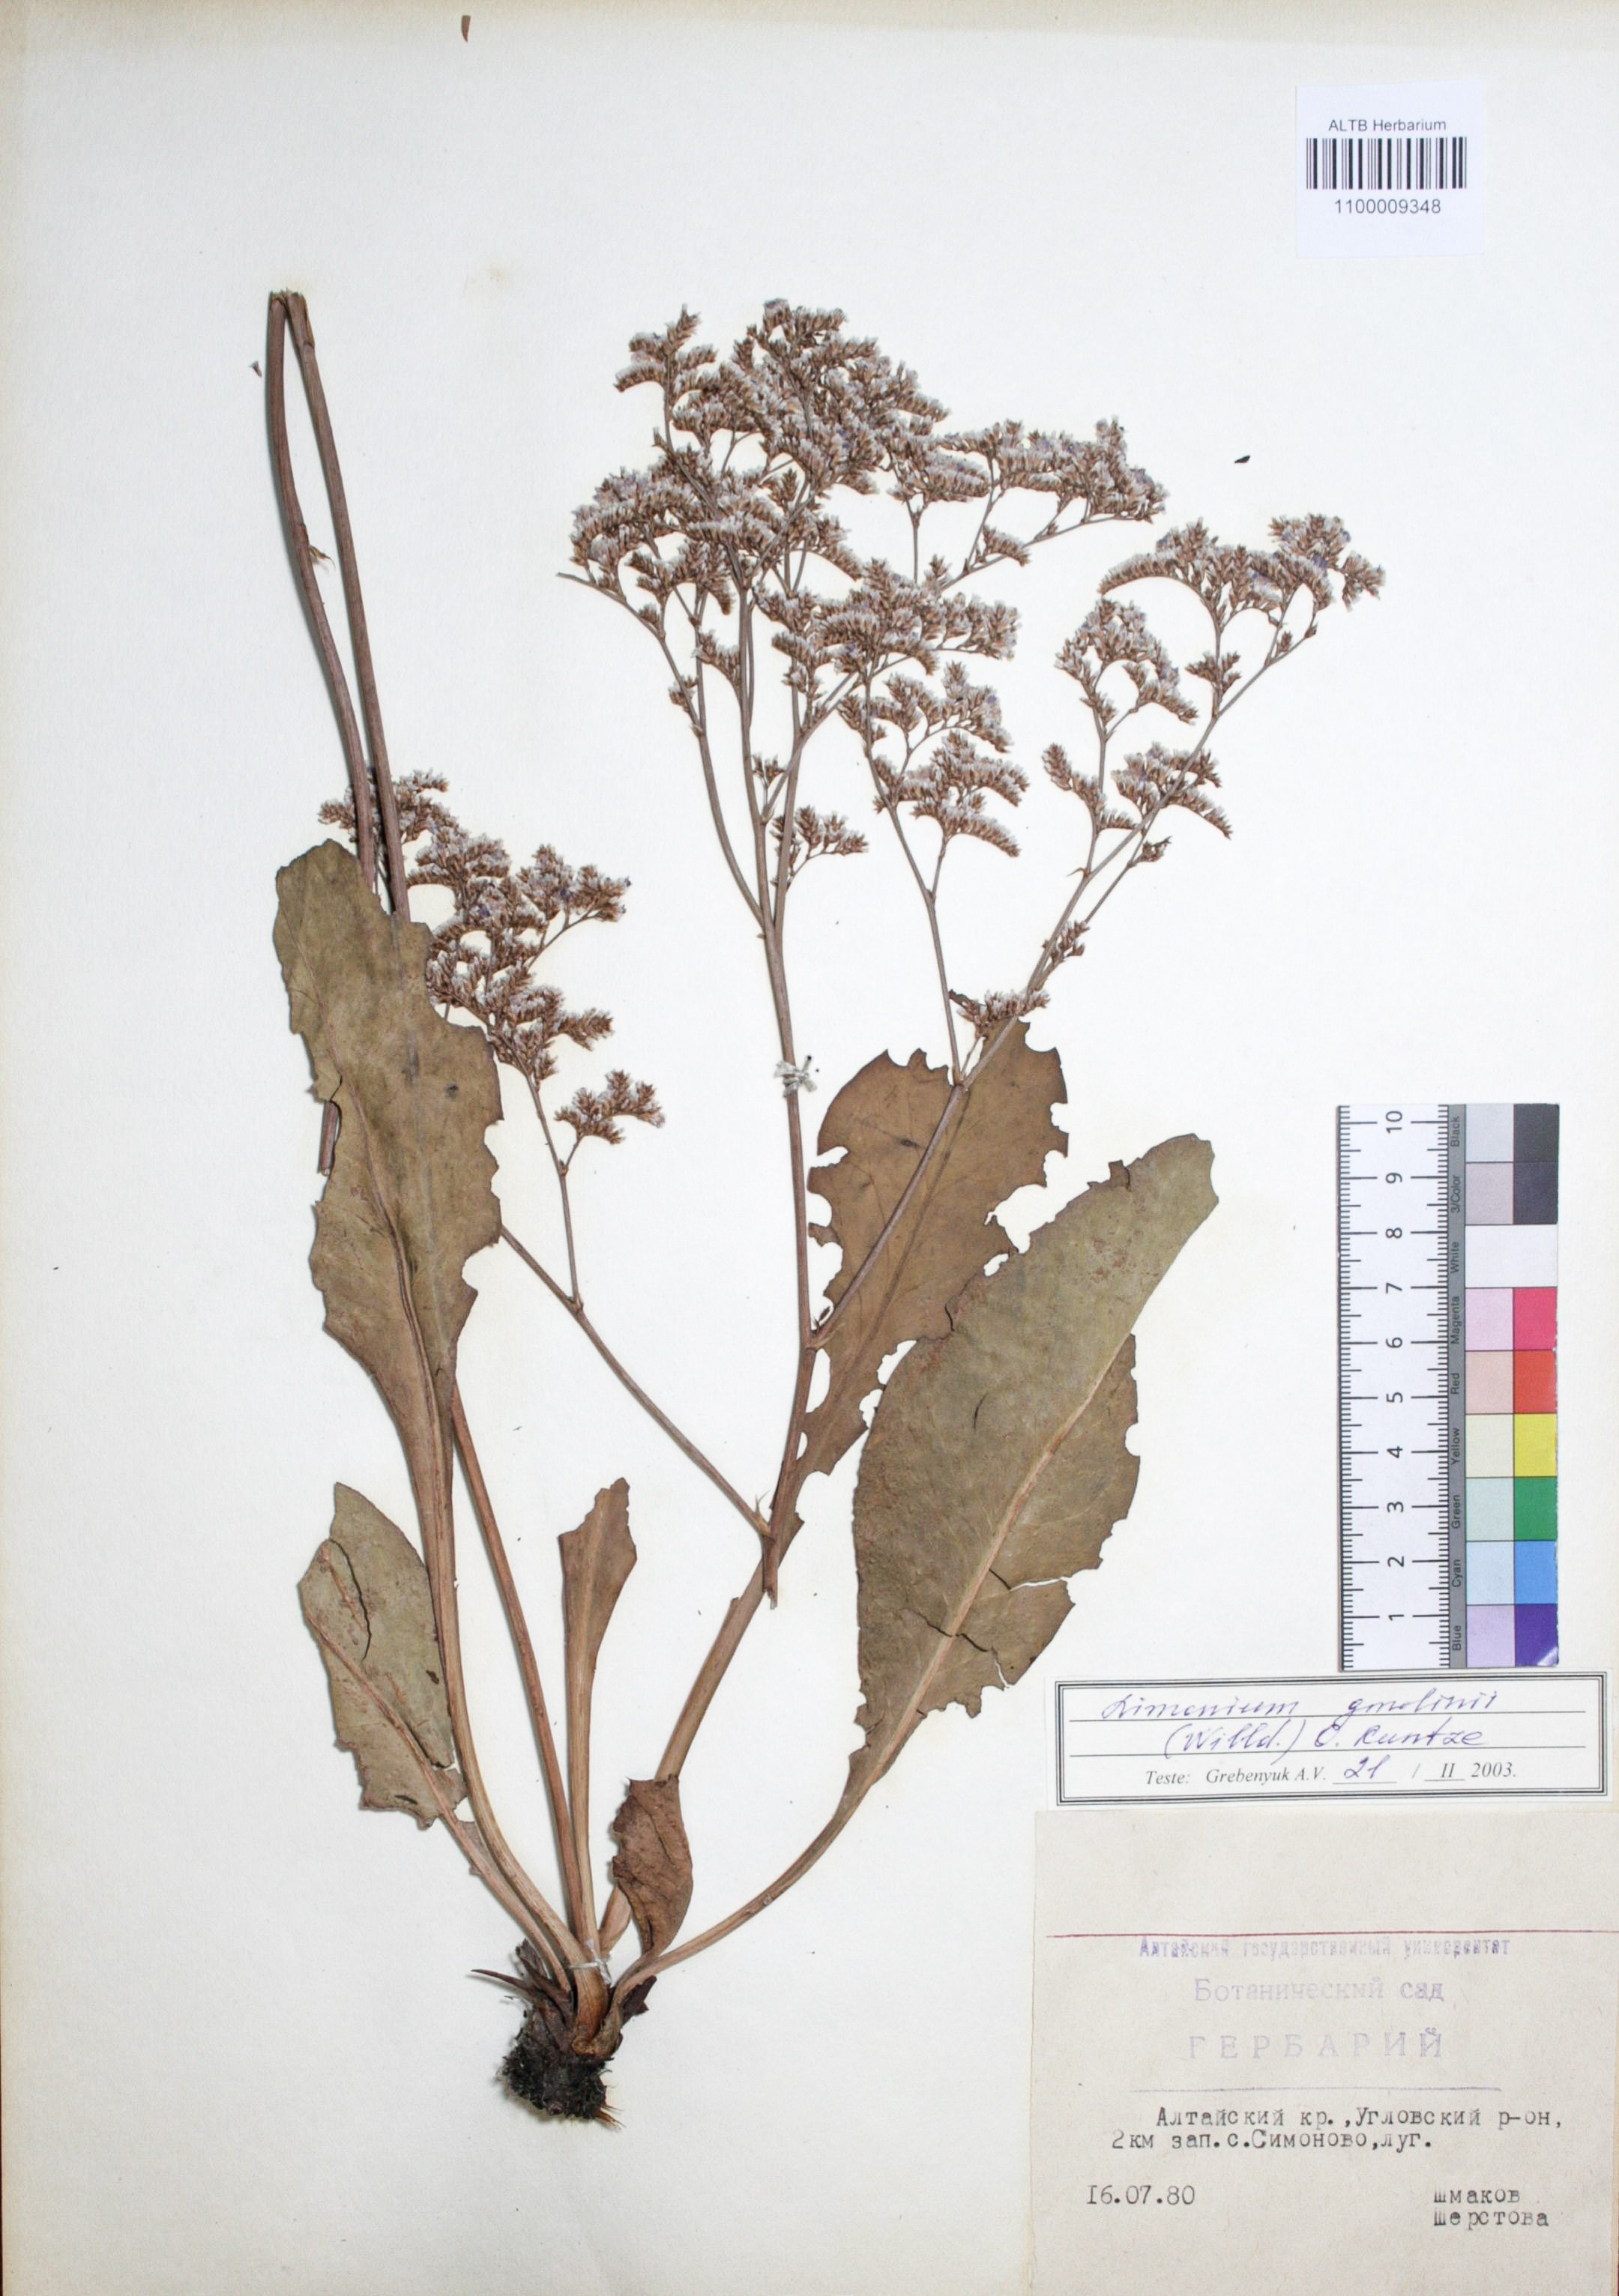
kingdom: Plantae
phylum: Tracheophyta
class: Magnoliopsida
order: Caryophyllales
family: Plumbaginaceae
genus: Limonium
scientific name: Limonium gmelini
